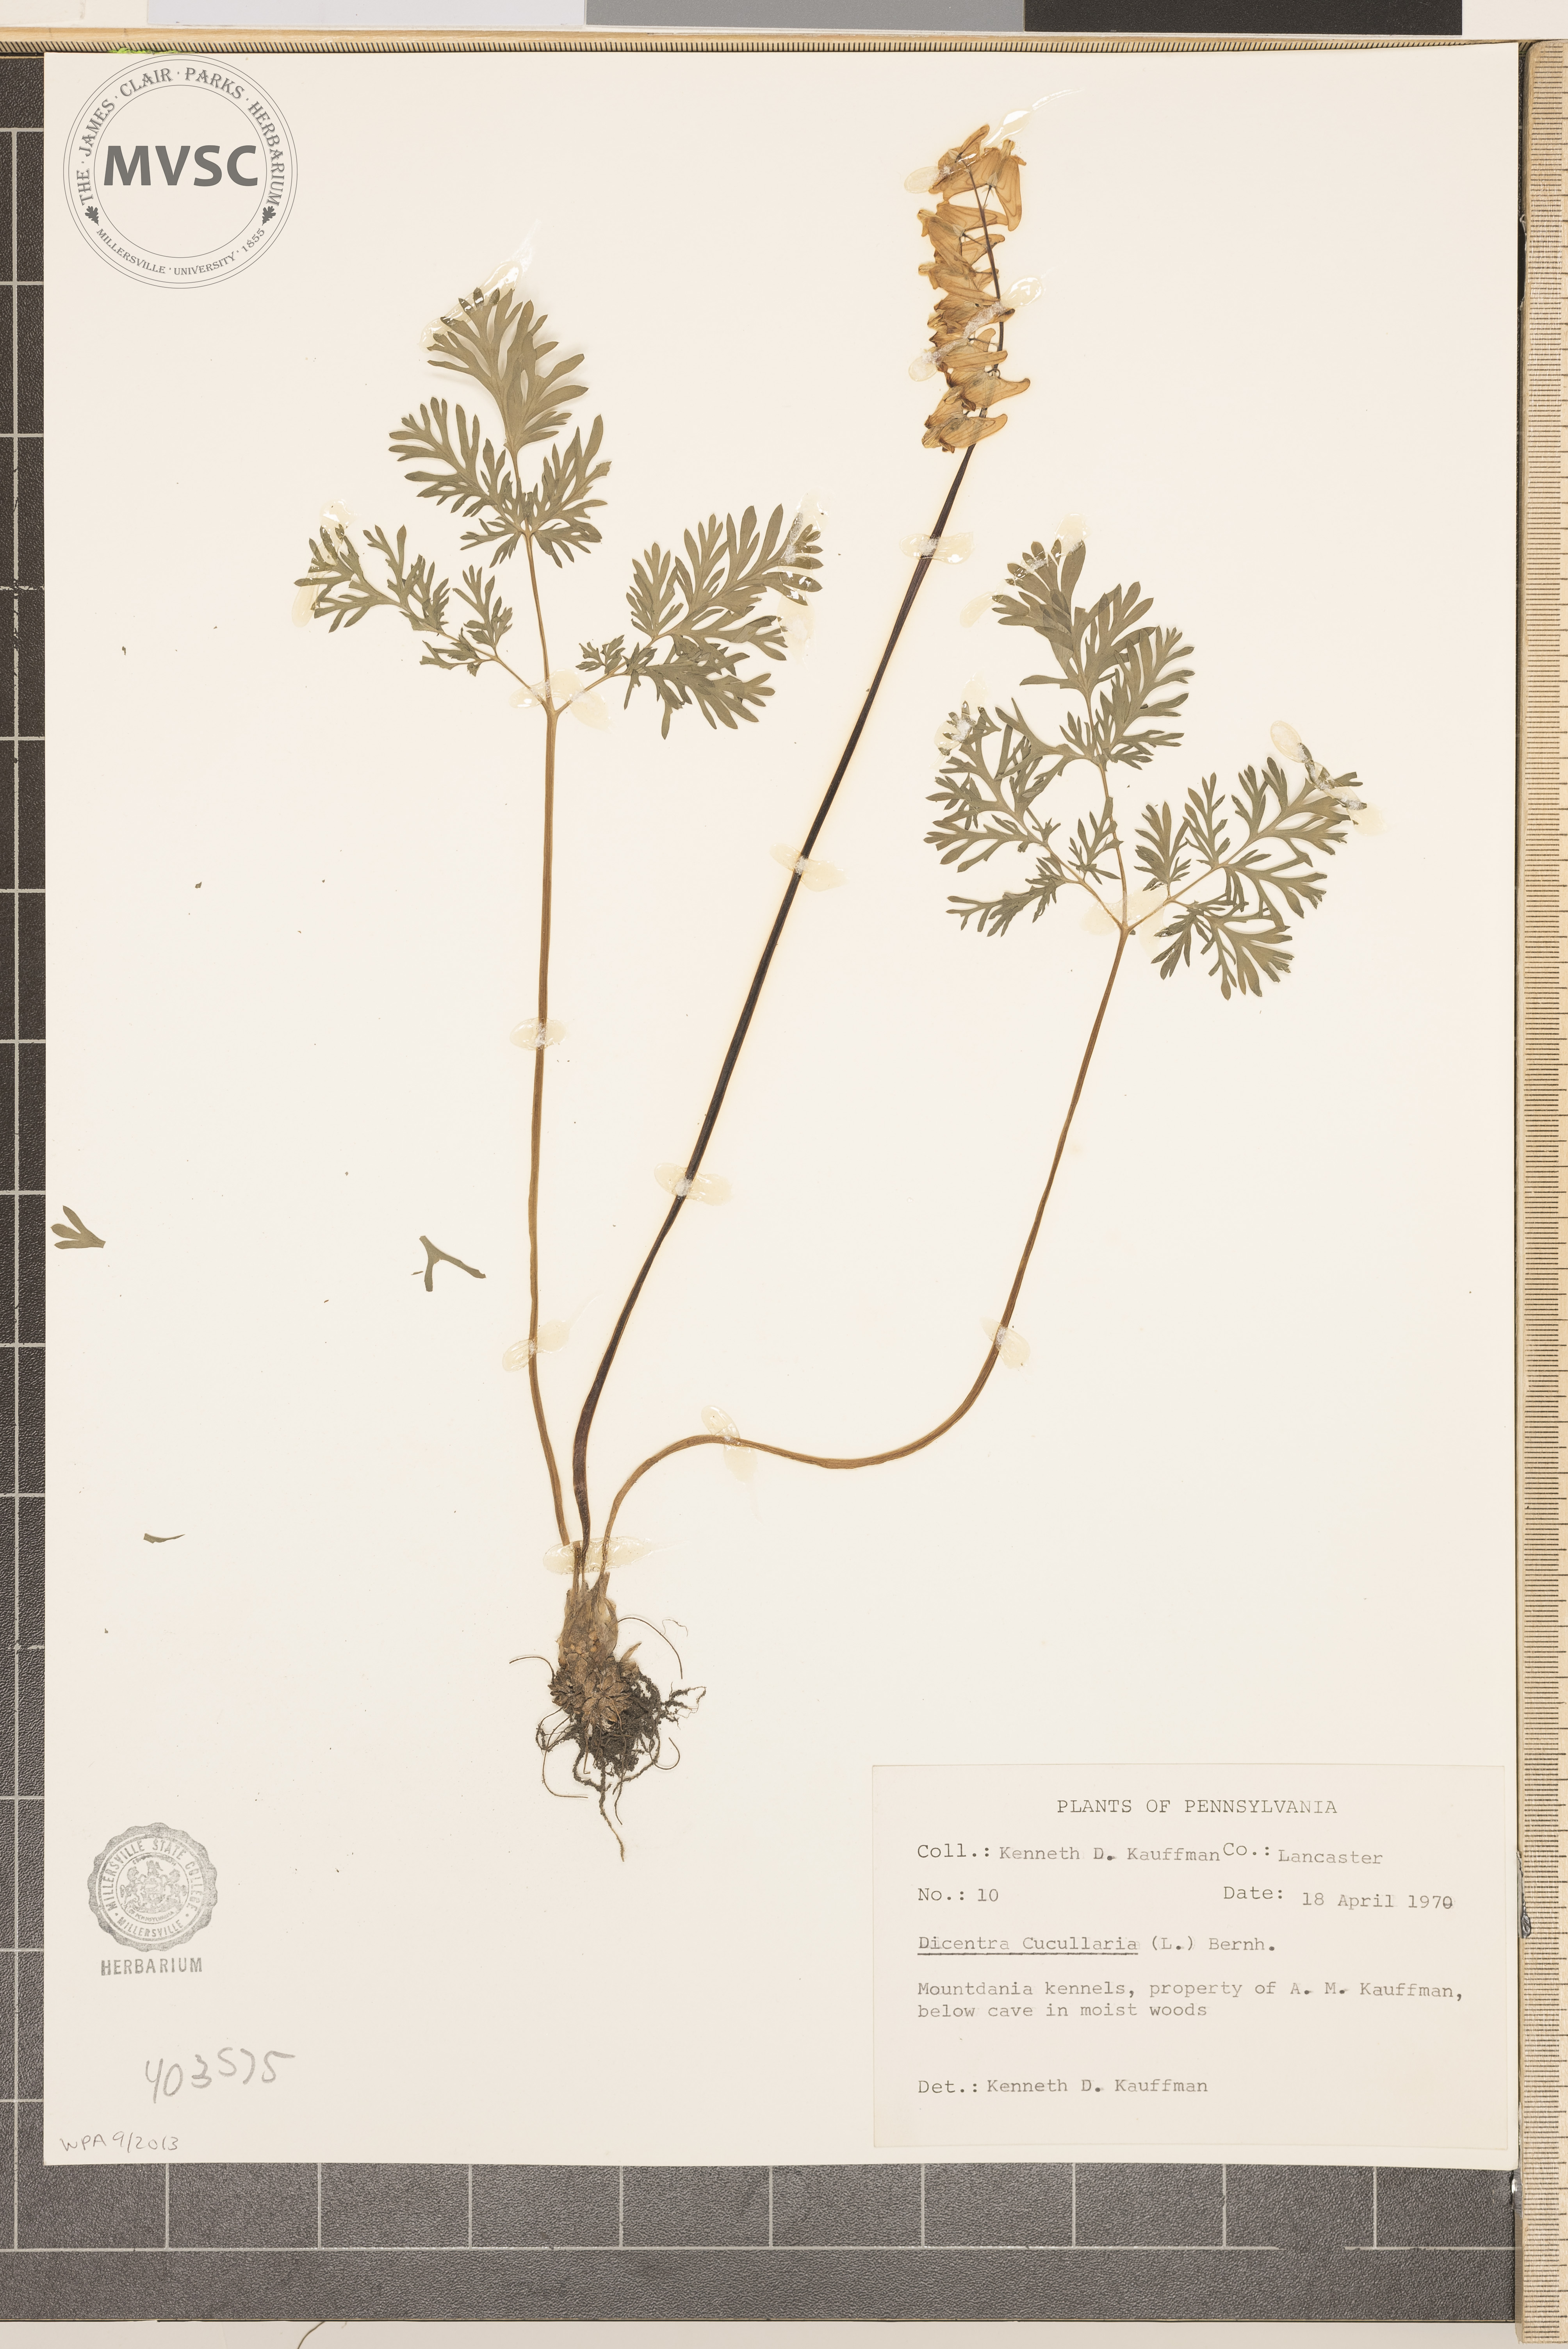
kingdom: Plantae
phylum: Tracheophyta
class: Magnoliopsida
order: Ranunculales
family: Papaveraceae
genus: Dicentra
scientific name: Dicentra cucullaria
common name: Dutchman's Breeches
